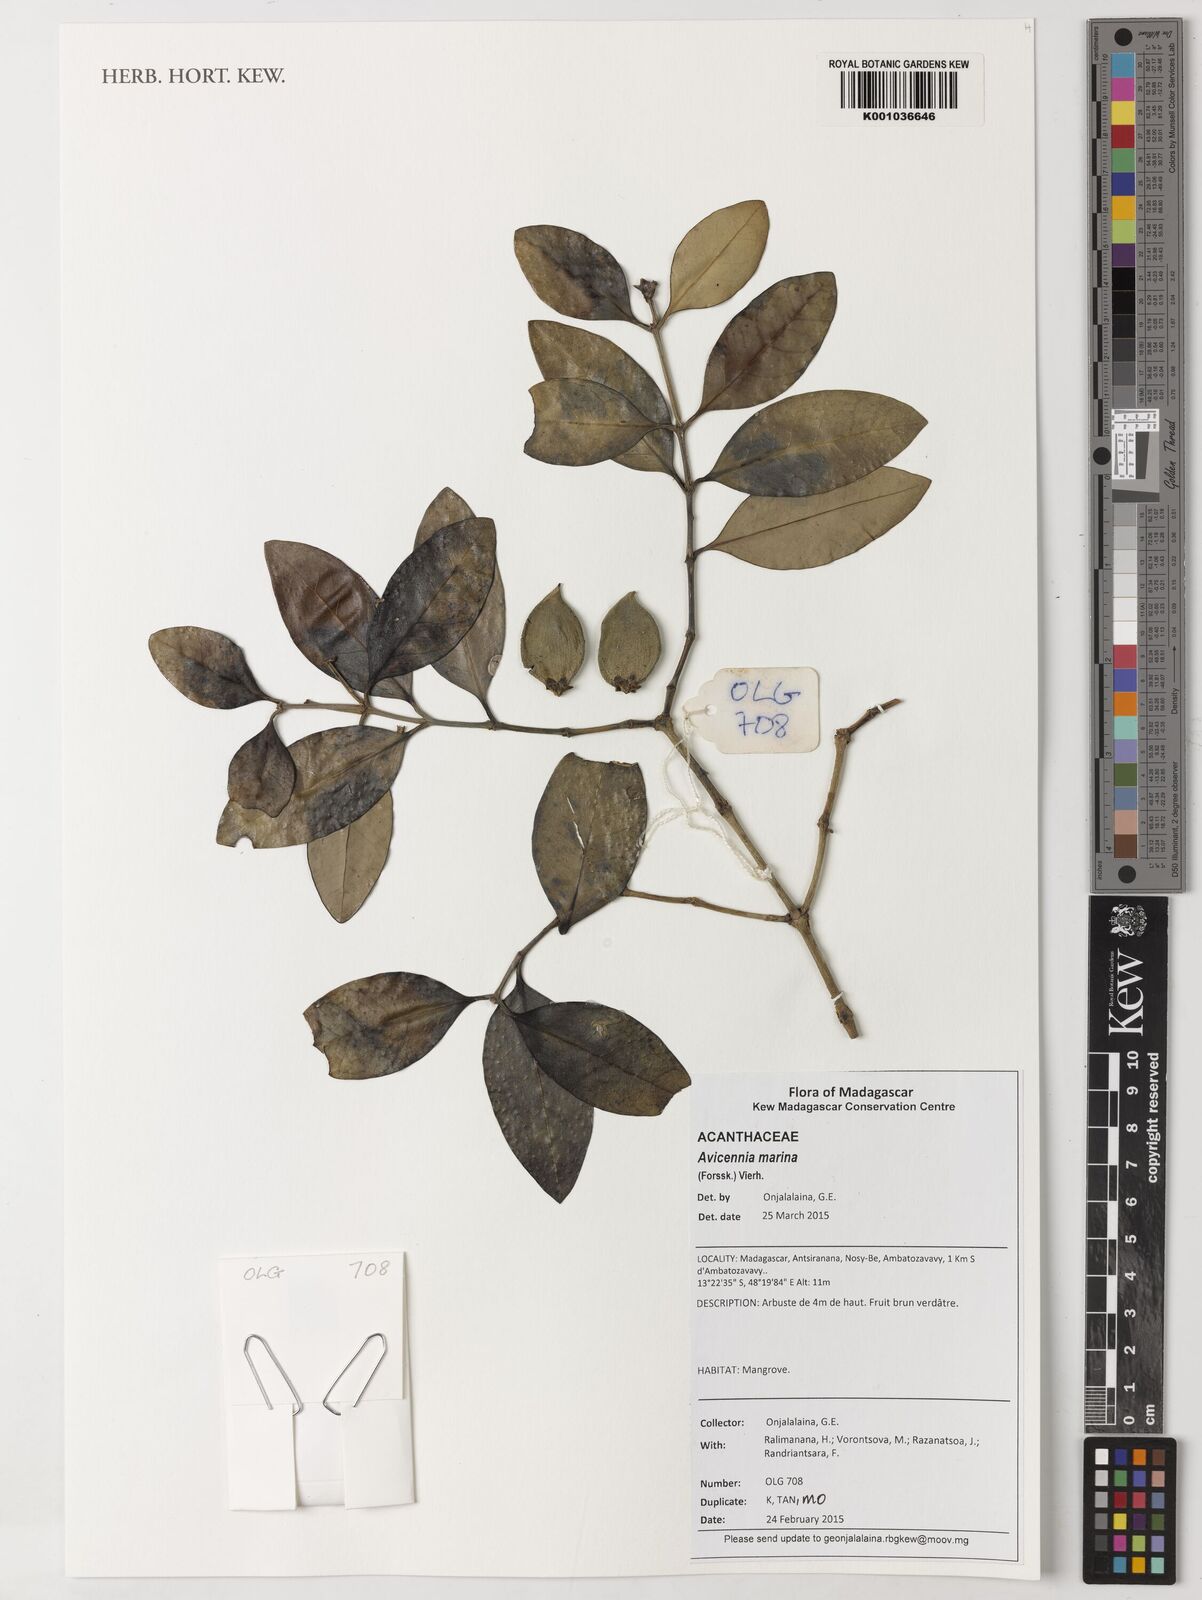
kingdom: Plantae
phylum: Tracheophyta
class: Magnoliopsida
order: Lamiales
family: Acanthaceae
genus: Avicennia
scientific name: Avicennia marina
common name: Gray mangrove
